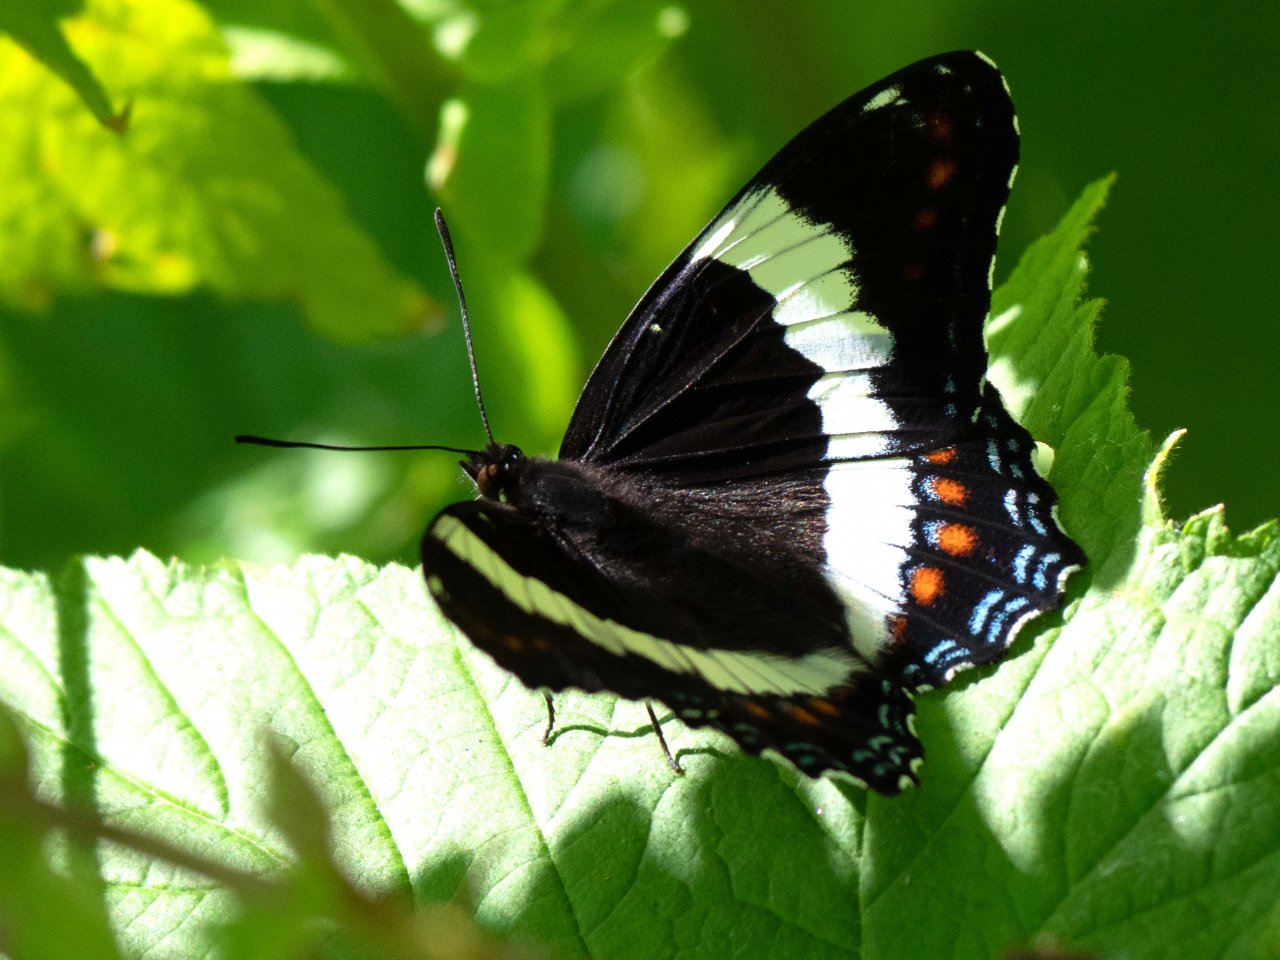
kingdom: Animalia
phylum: Arthropoda
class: Insecta
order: Lepidoptera
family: Nymphalidae
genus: Limenitis
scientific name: Limenitis arthemis
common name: Red-spotted Admiral
